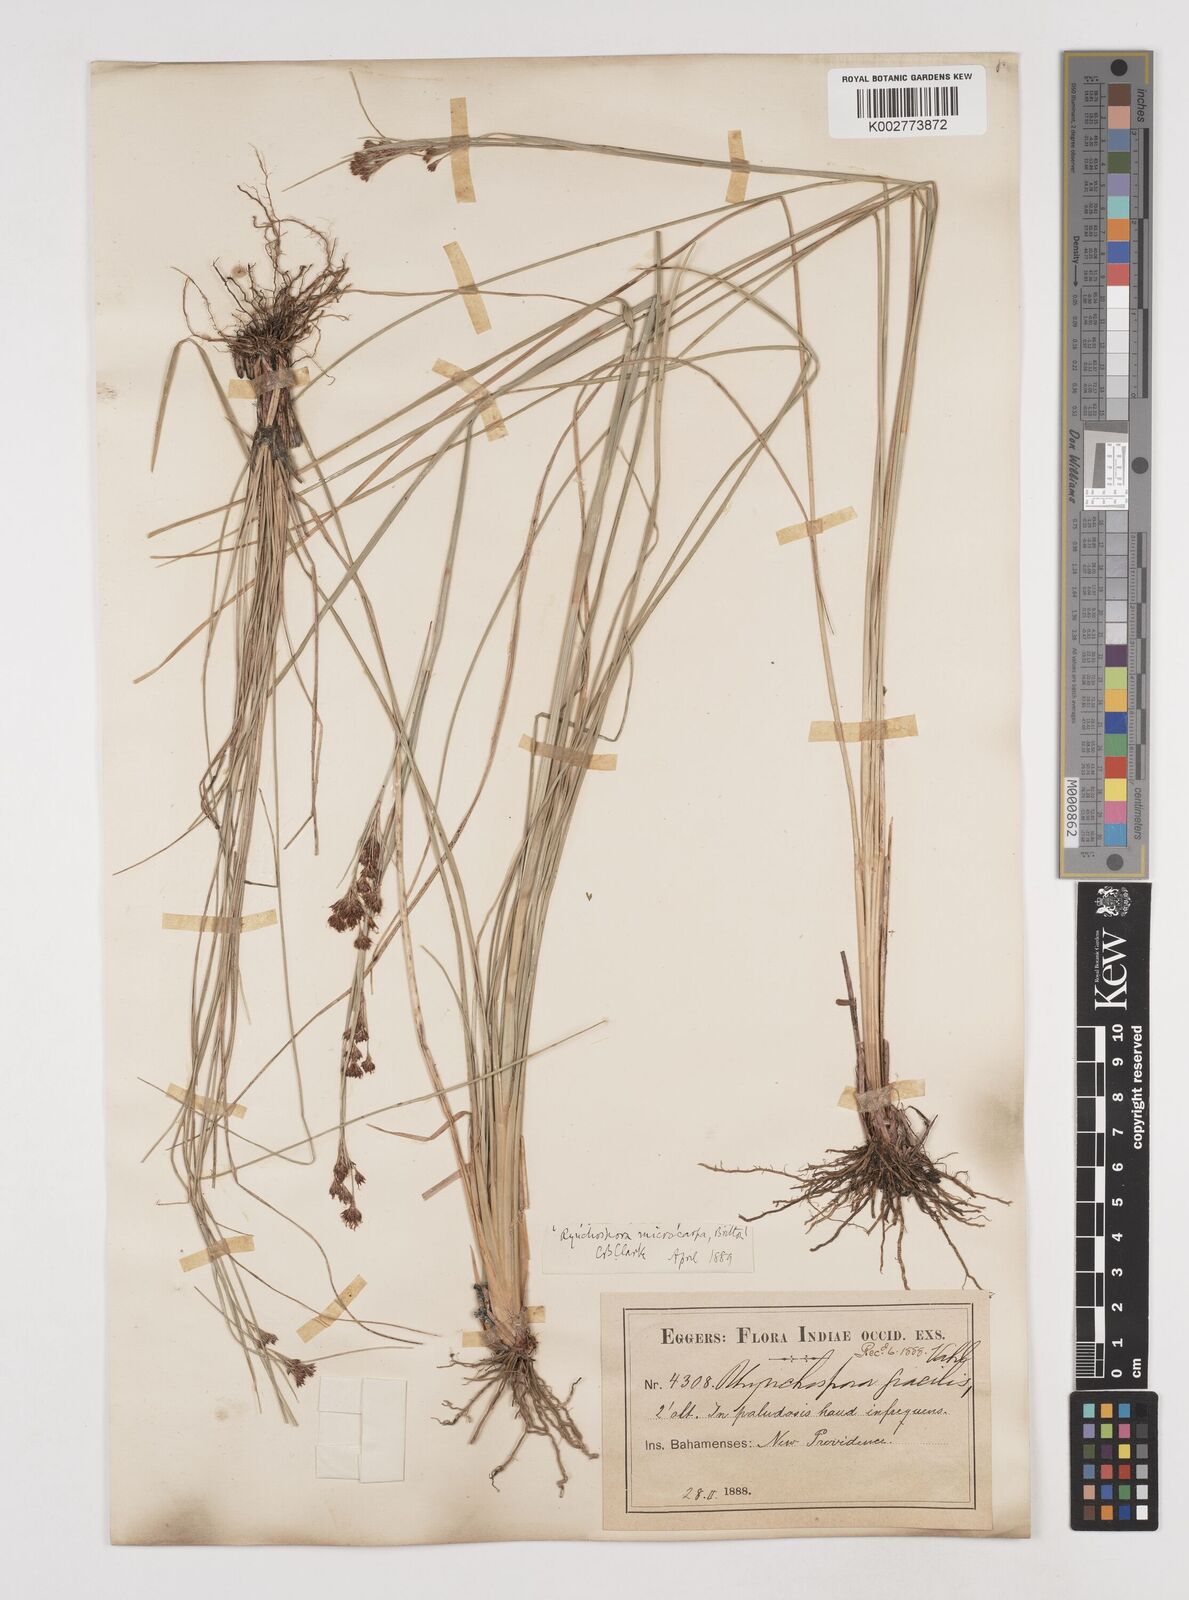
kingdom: Plantae
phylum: Tracheophyta
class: Liliopsida
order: Poales
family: Cyperaceae
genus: Rhynchospora
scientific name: Rhynchospora microcarpa
